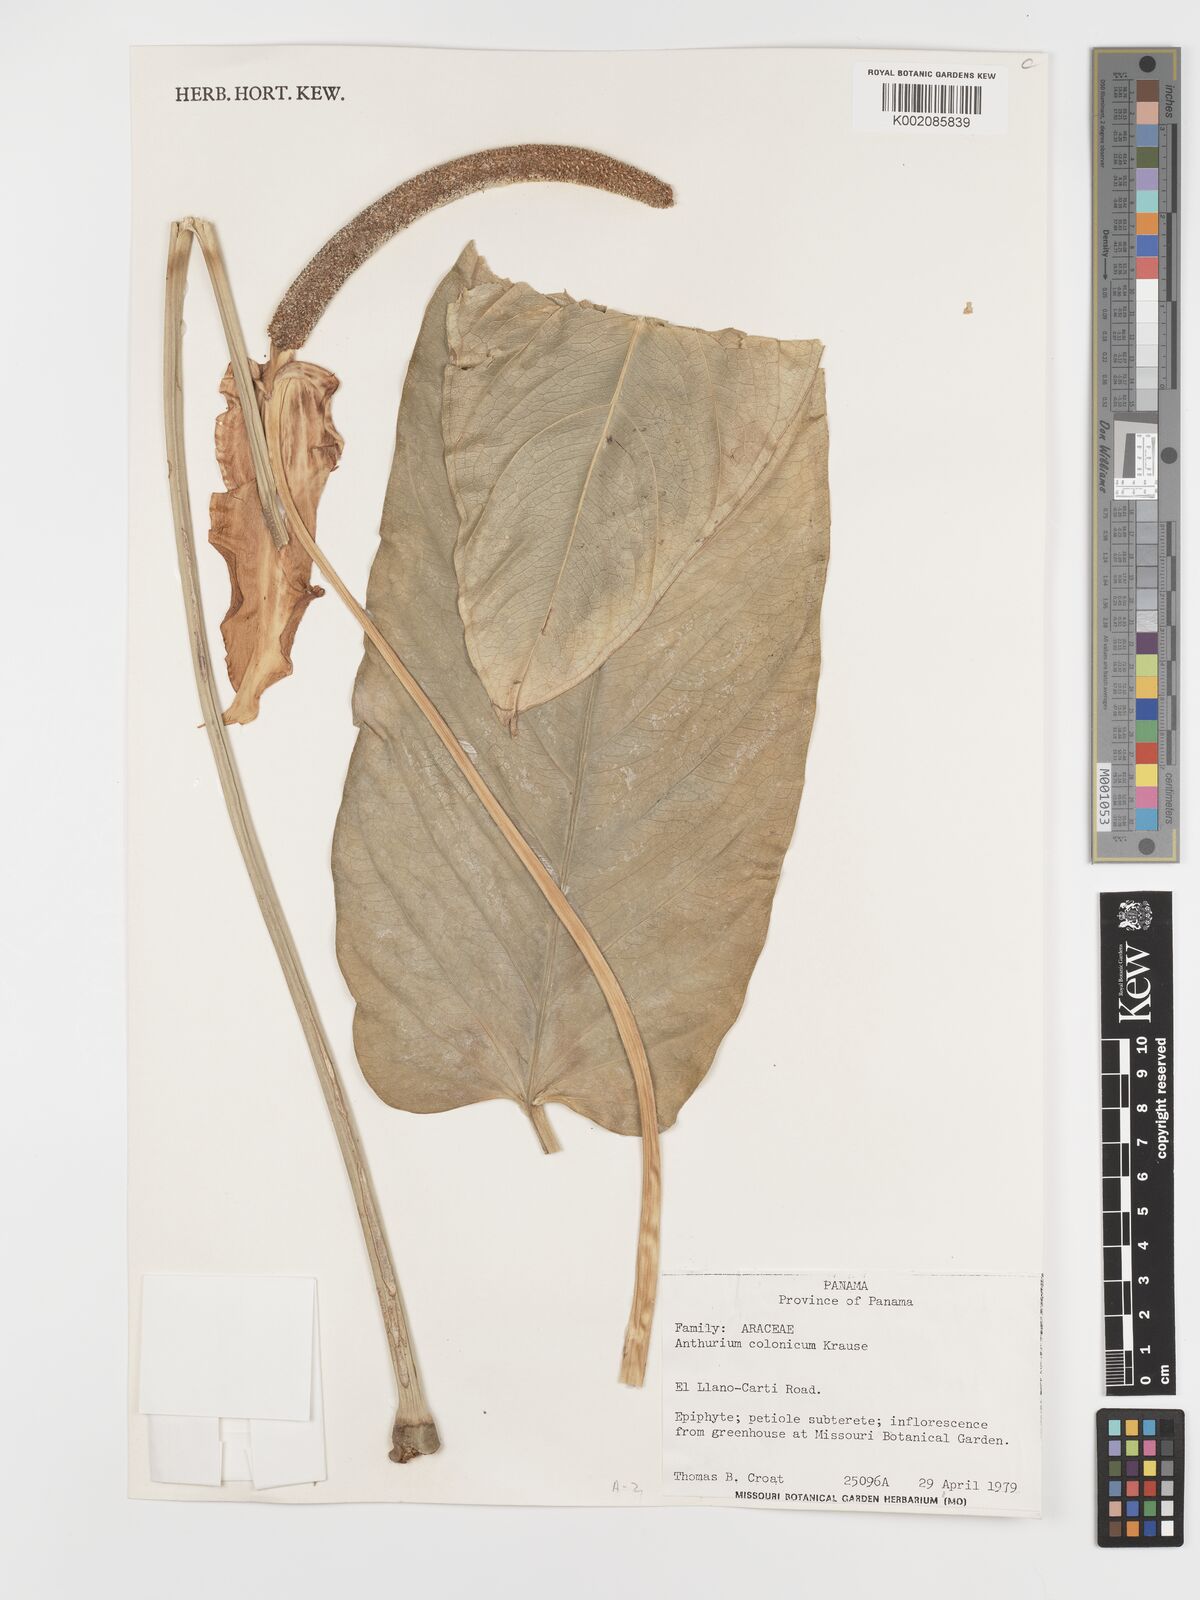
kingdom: Plantae
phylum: Tracheophyta
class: Liliopsida
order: Alismatales
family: Araceae
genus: Anthurium
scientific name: Anthurium colonicum
